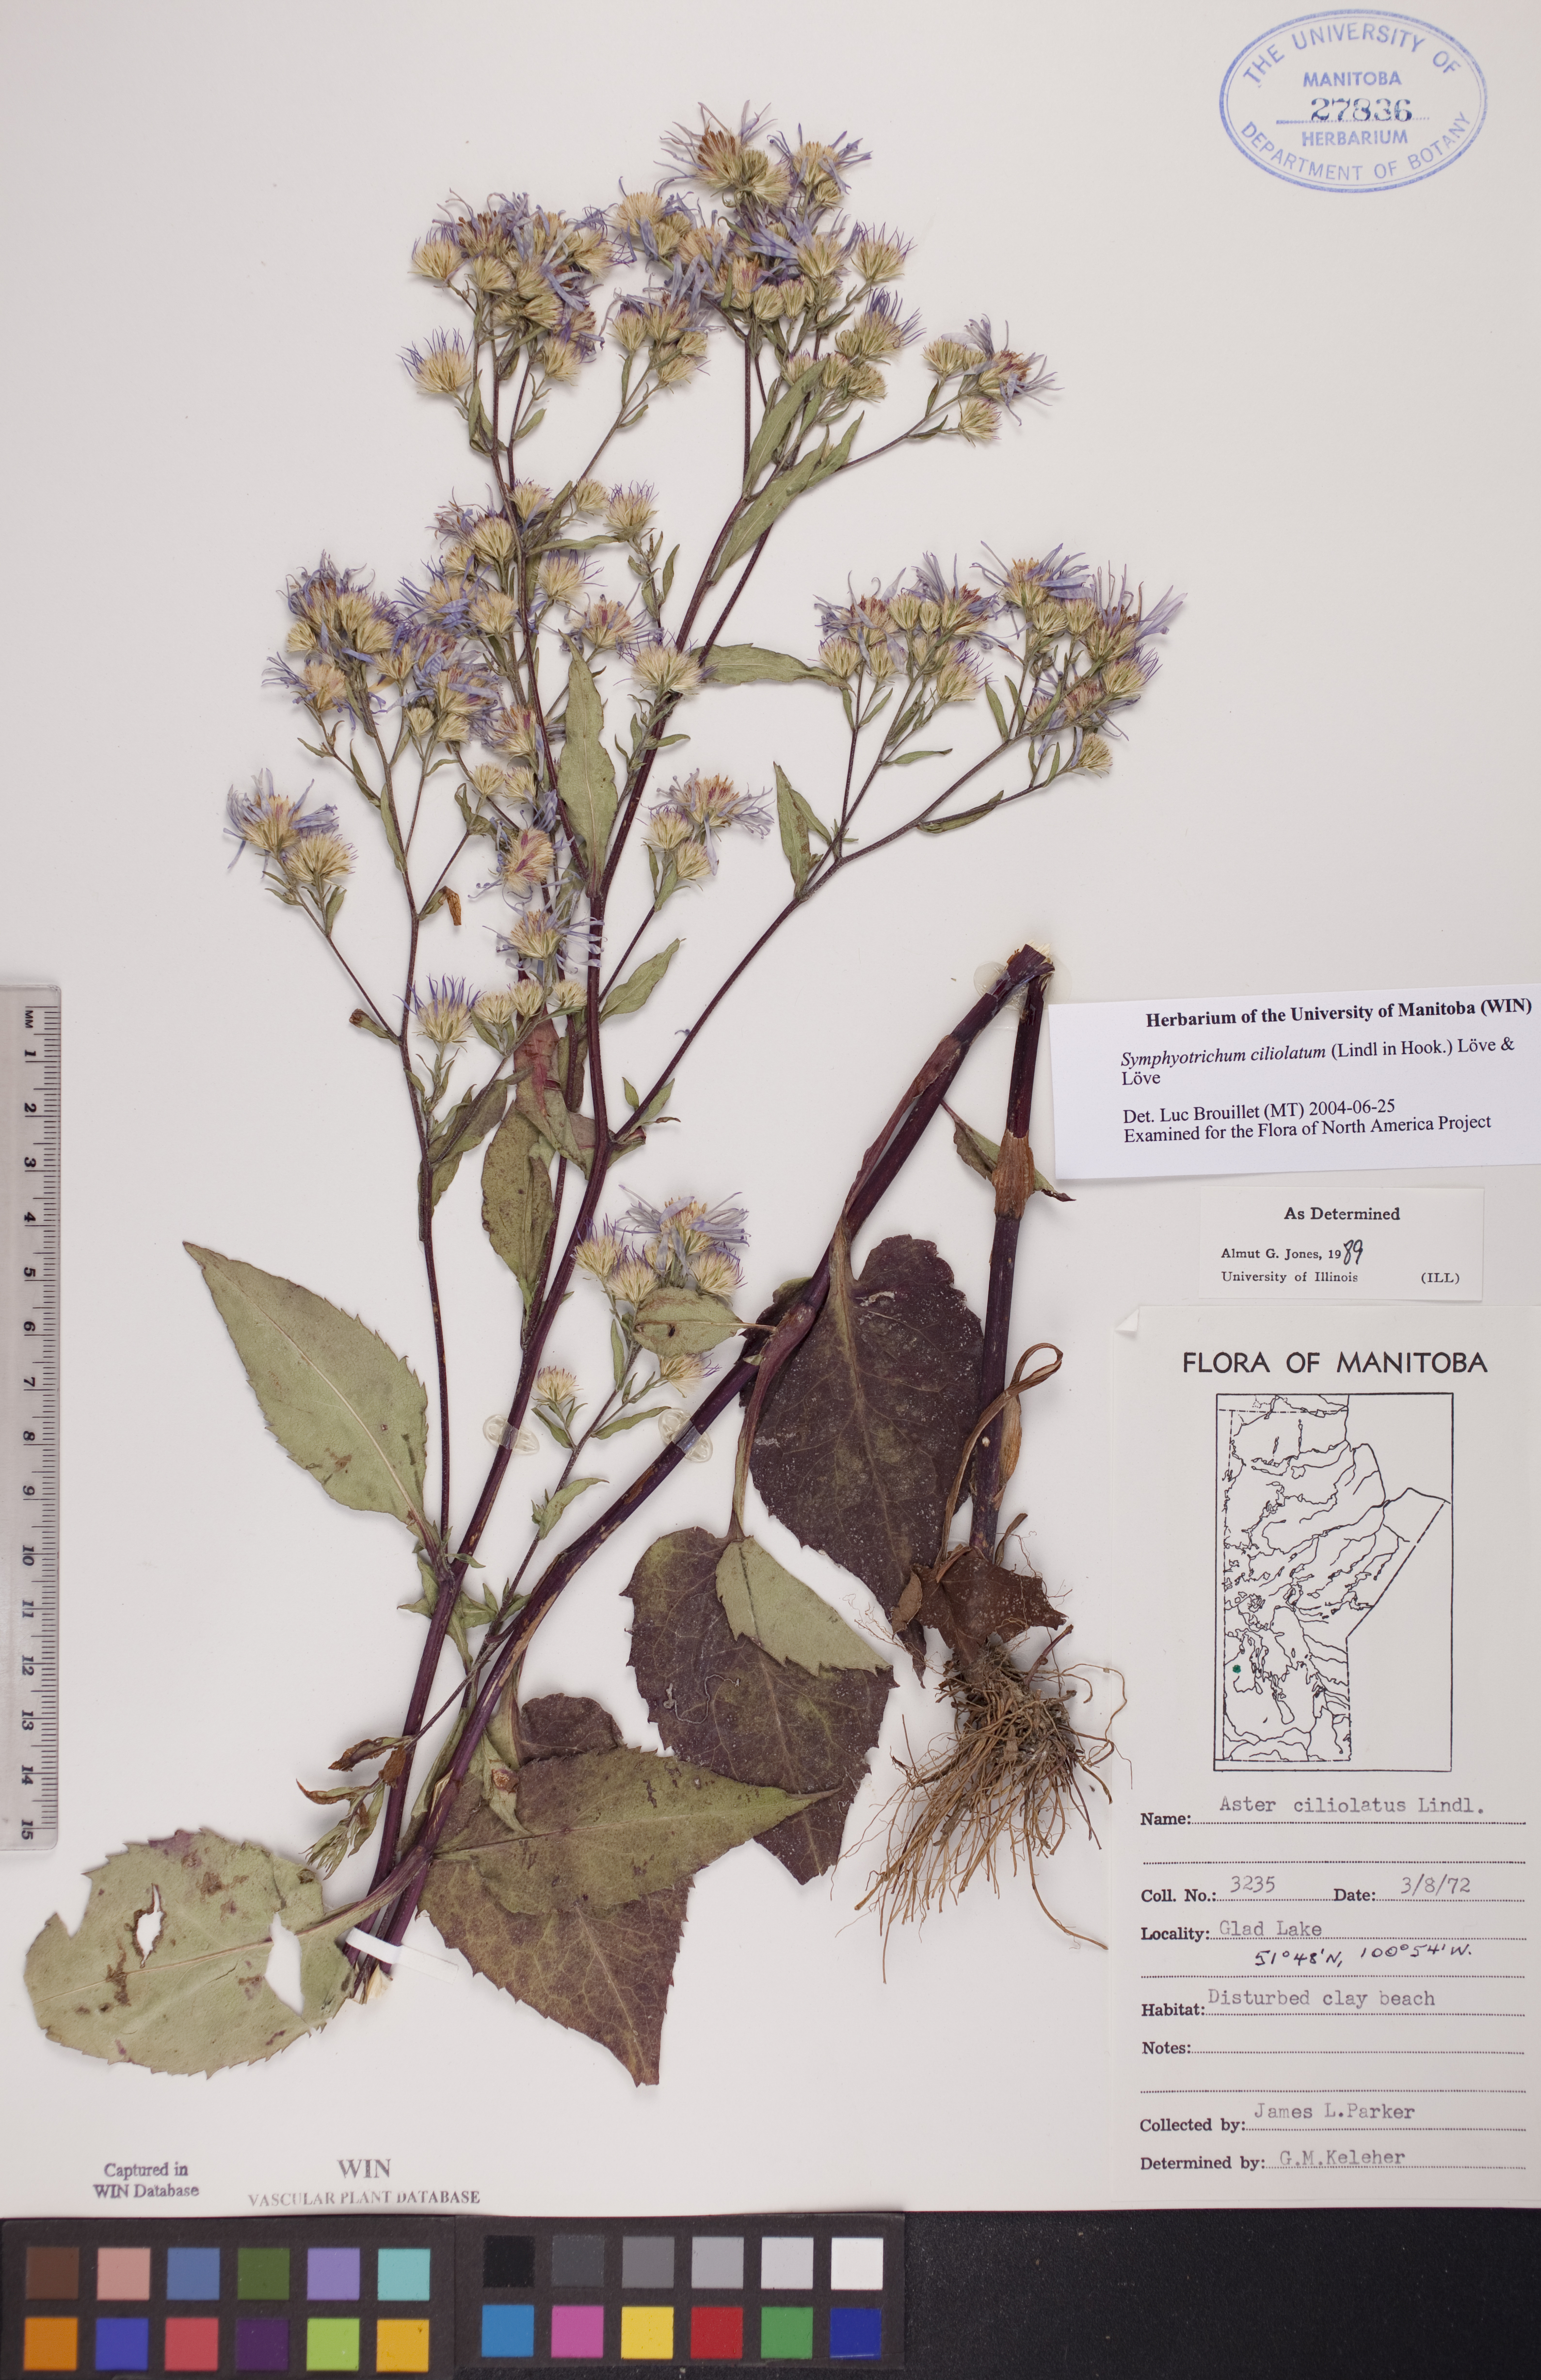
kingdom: Plantae
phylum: Tracheophyta
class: Magnoliopsida
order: Asterales
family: Asteraceae
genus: Symphyotrichum
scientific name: Symphyotrichum ciliolatum
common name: Fringed blue aster
